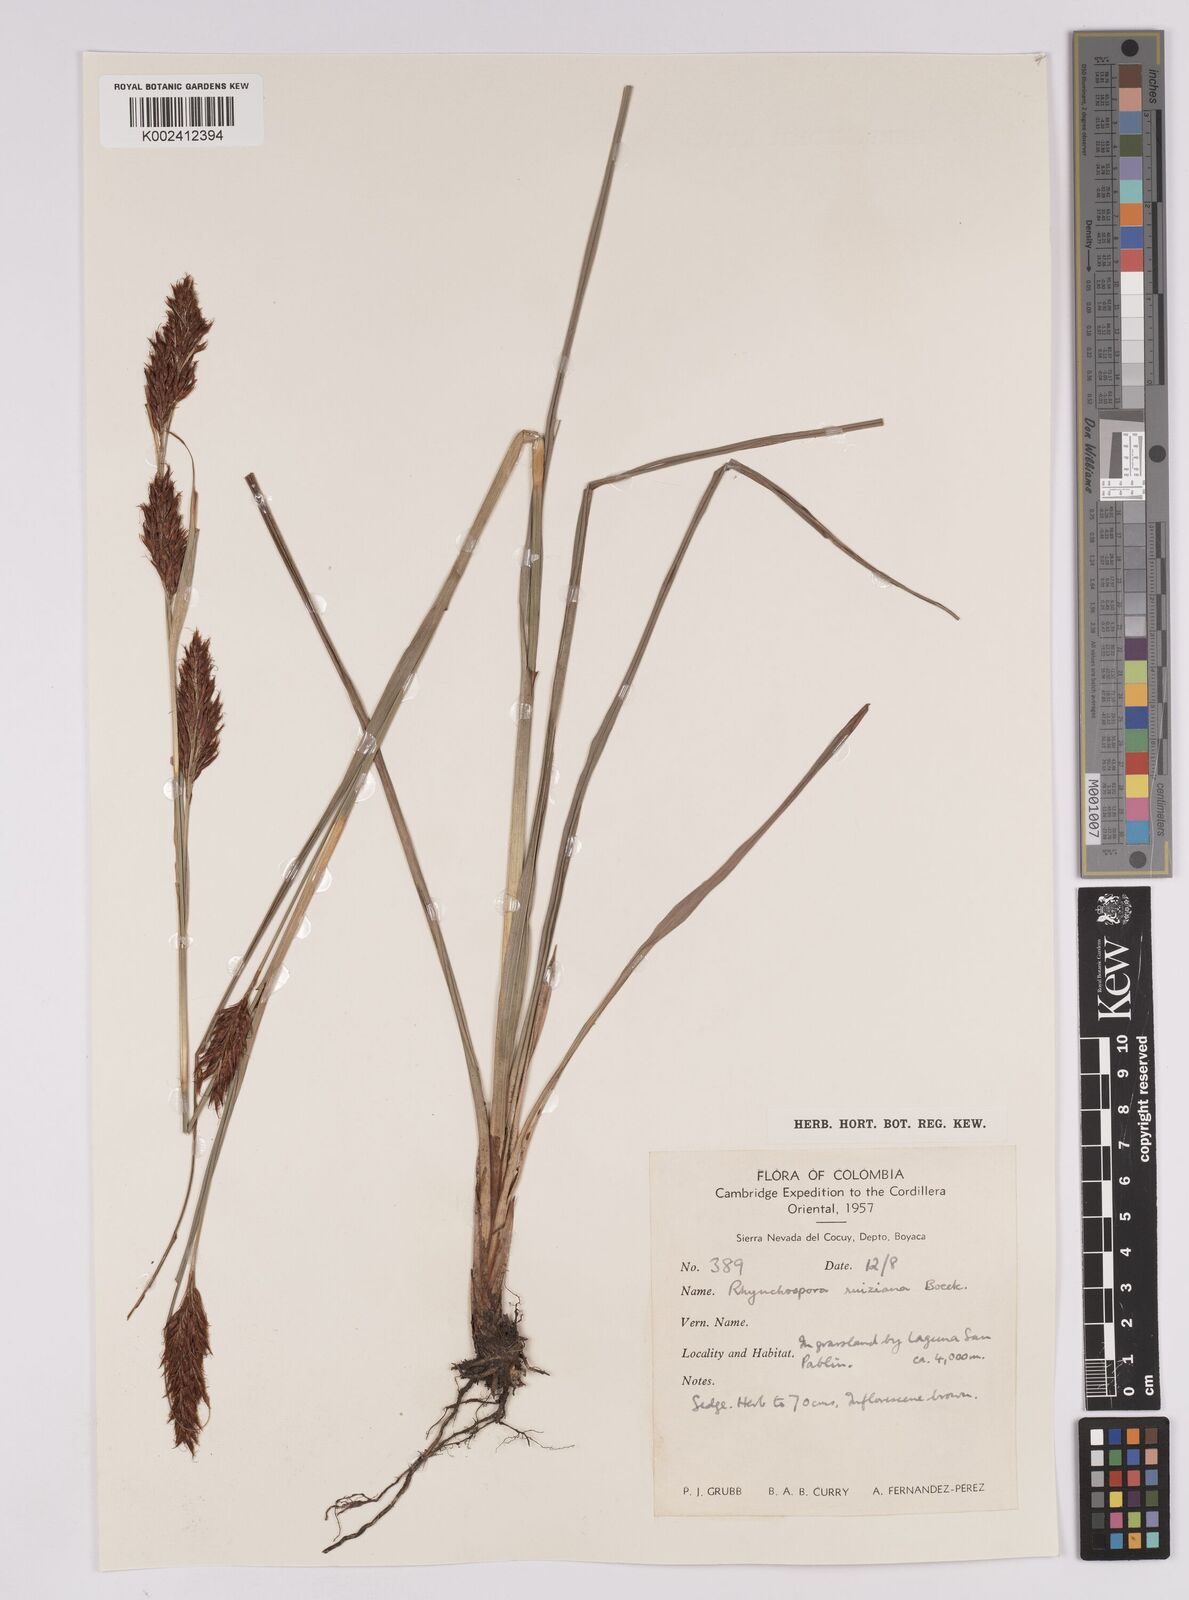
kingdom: Plantae
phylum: Tracheophyta
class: Liliopsida
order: Poales
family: Cyperaceae
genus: Rhynchospora
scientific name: Rhynchospora ruiziana
